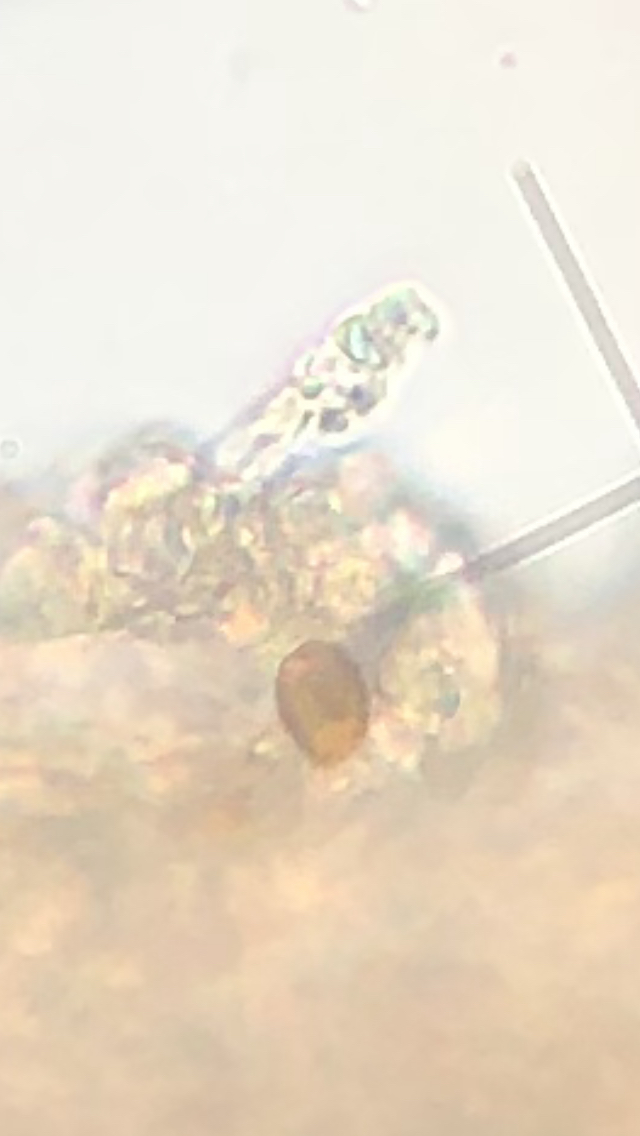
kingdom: Fungi
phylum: Basidiomycota
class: Agaricomycetes
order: Agaricales
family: Cortinariaceae
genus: Cortinarius
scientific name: Cortinarius vernus
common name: sommer-slørhat
